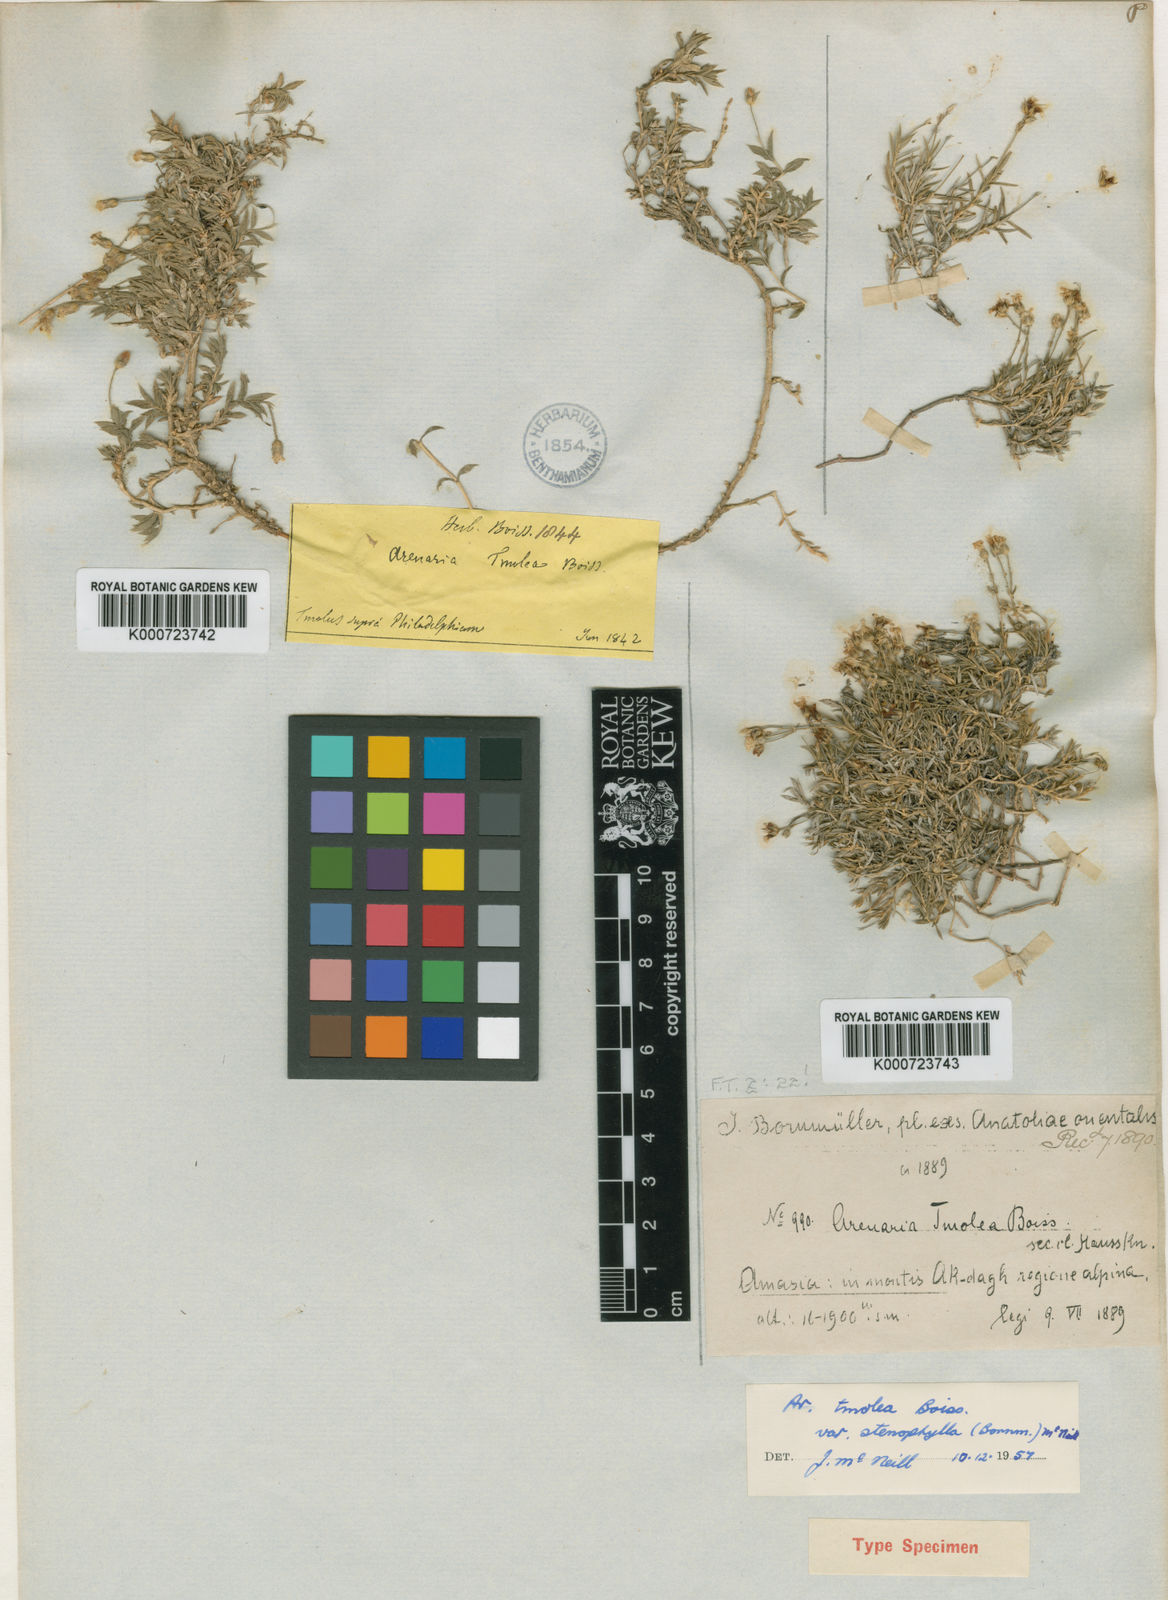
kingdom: Plantae
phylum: Tracheophyta
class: Magnoliopsida
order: Caryophyllales
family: Caryophyllaceae
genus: Arenaria
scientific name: Arenaria kotschyana
